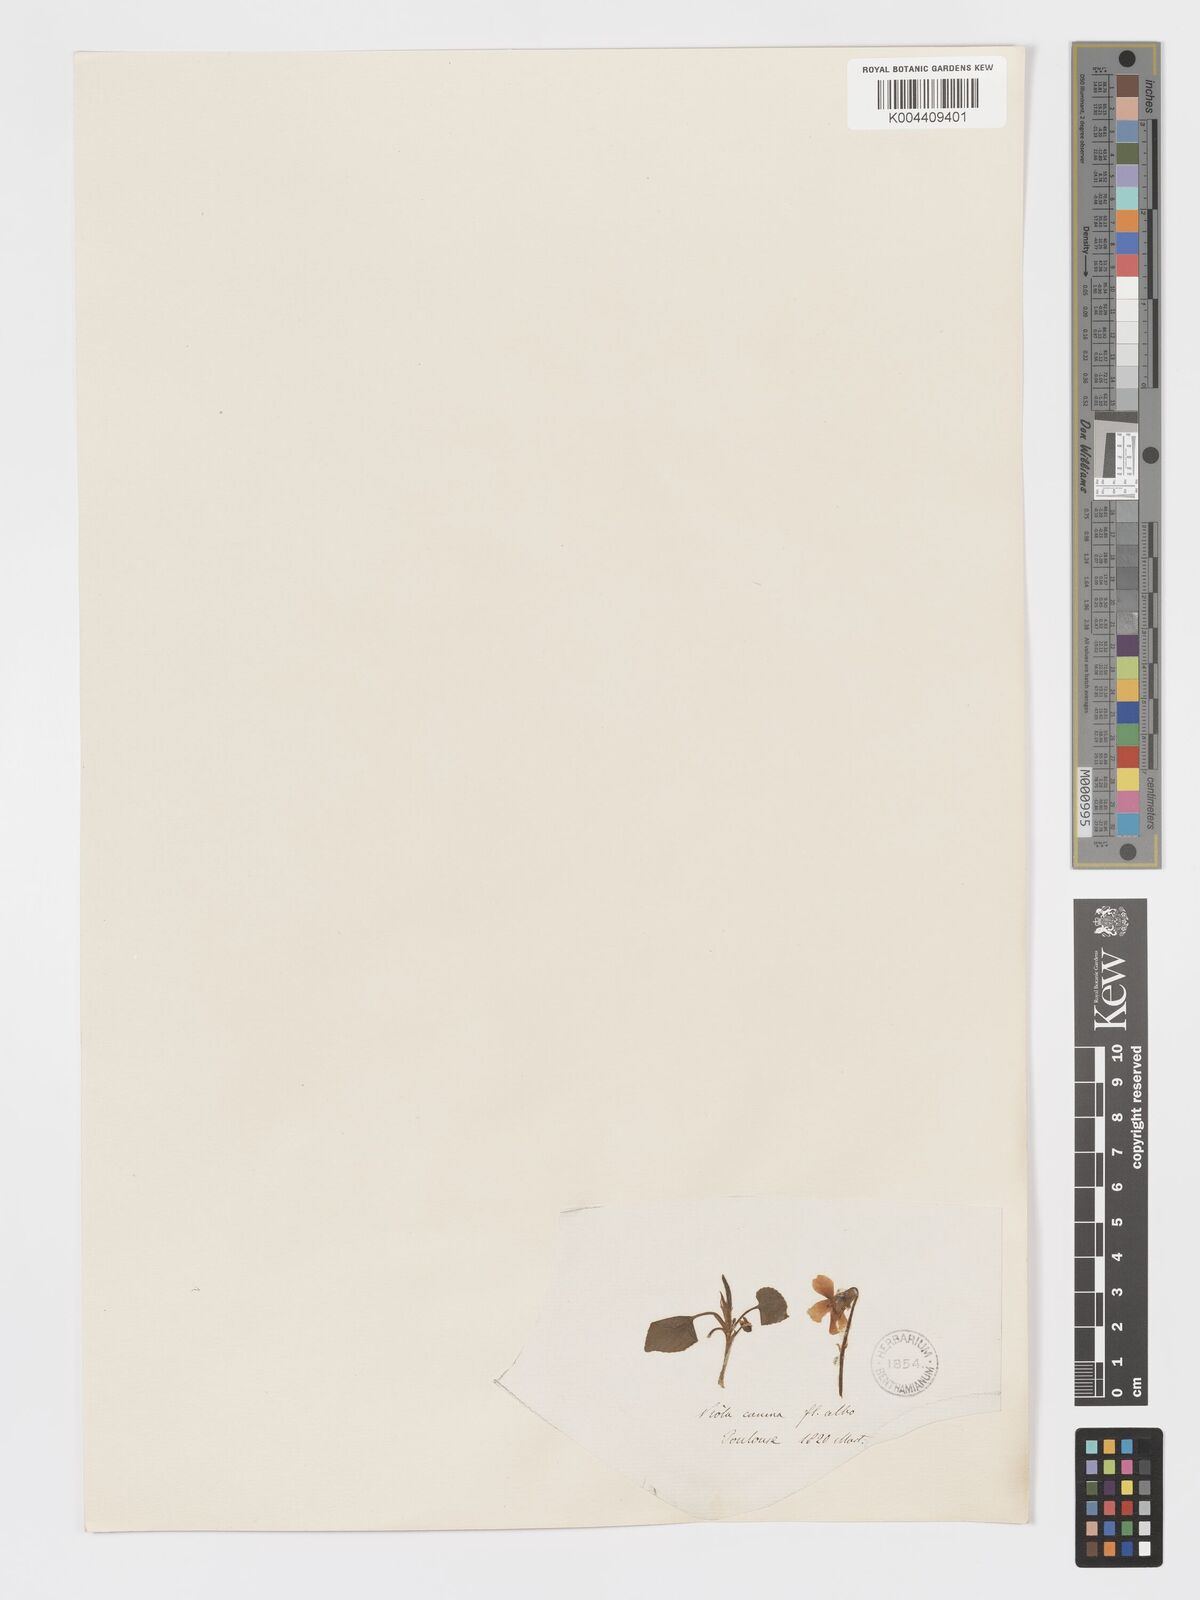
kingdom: Plantae
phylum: Tracheophyta
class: Magnoliopsida
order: Malpighiales
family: Violaceae
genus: Viola
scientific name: Viola alba
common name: White violet
